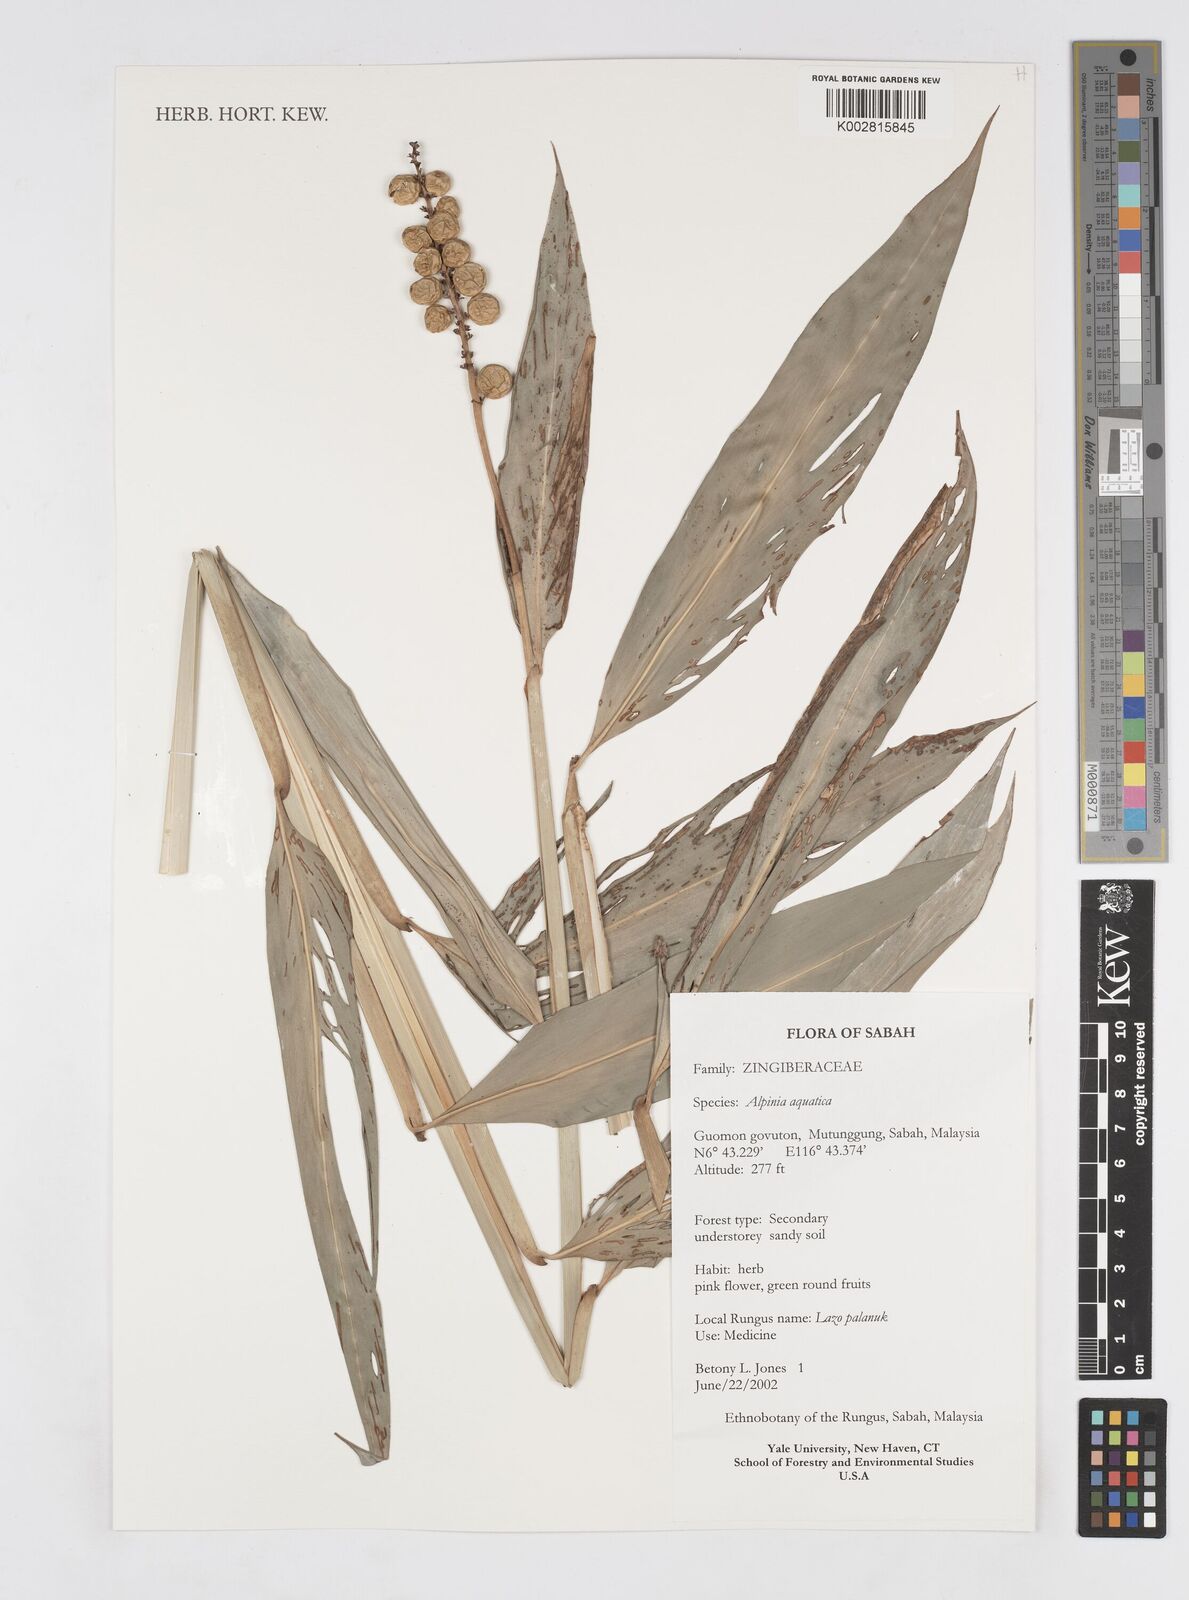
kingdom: Plantae
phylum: Tracheophyta
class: Liliopsida
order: Zingiberales
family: Zingiberaceae
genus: Alpinia
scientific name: Alpinia aquatica
